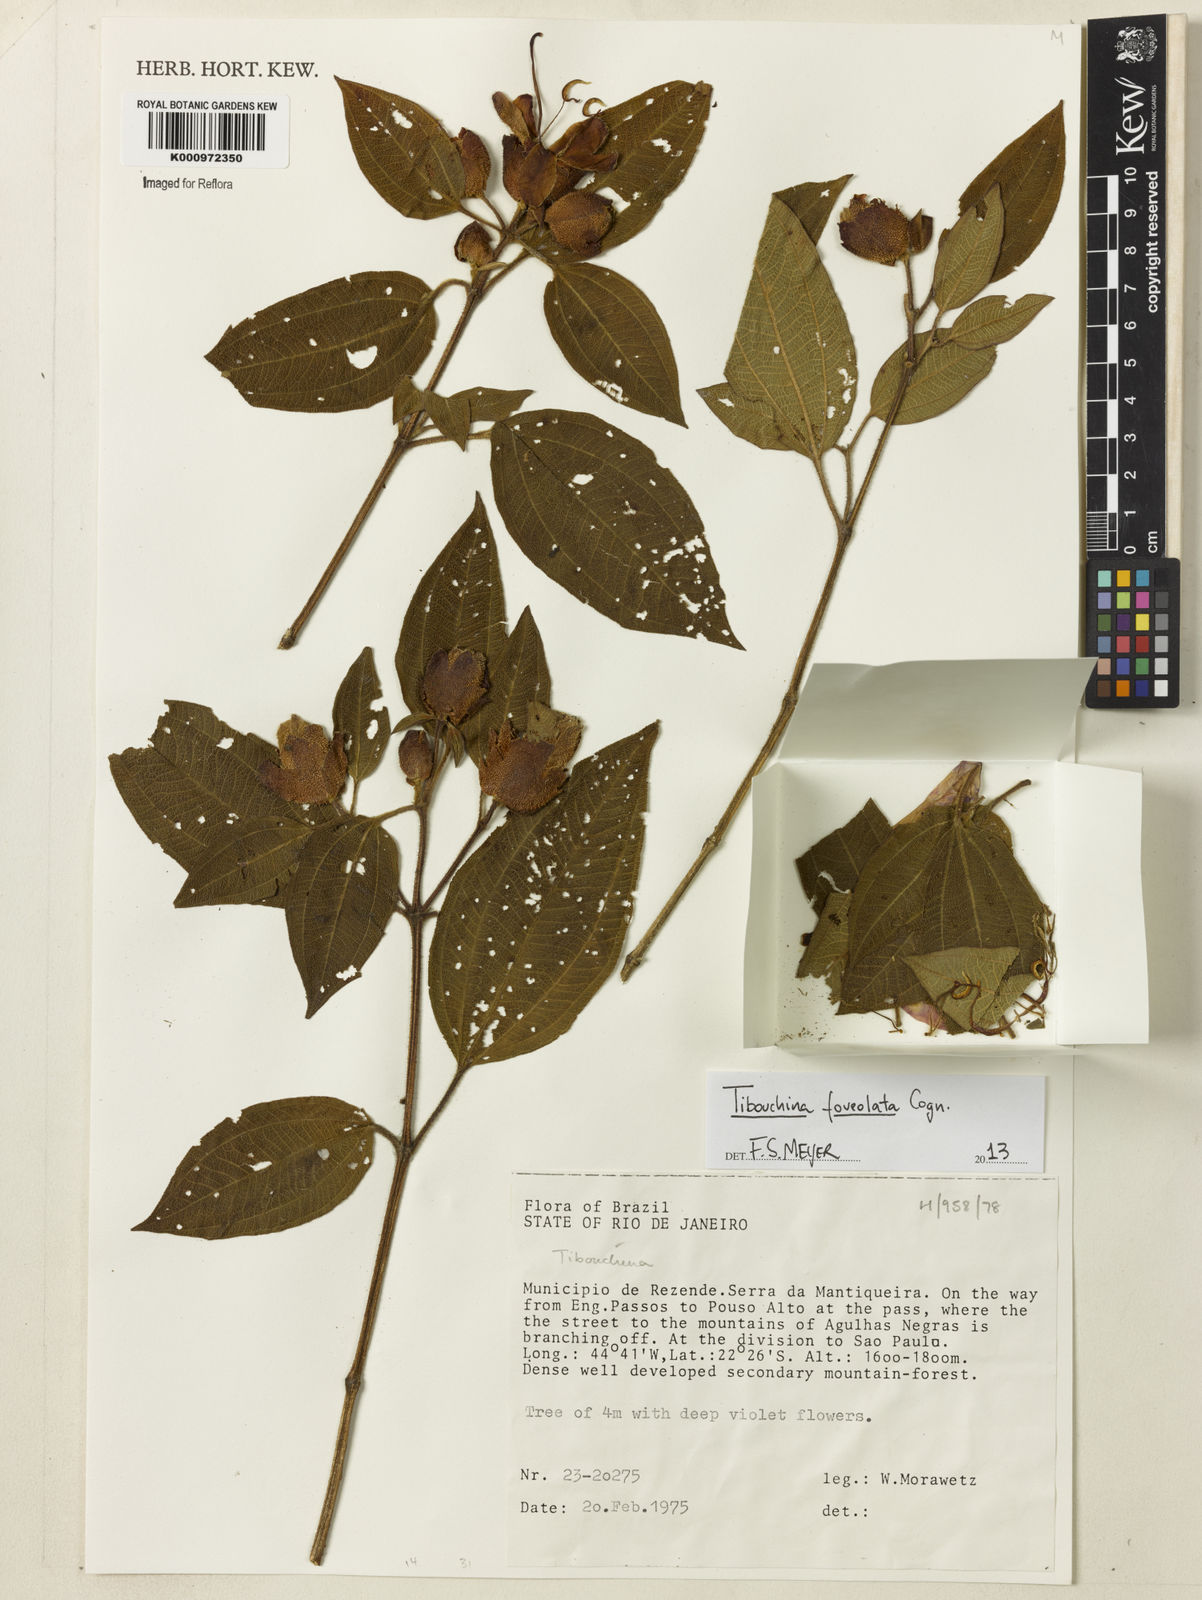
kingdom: Plantae
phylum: Tracheophyta
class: Magnoliopsida
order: Myrtales
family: Melastomataceae
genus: Pleroma
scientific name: Pleroma foveolatum
